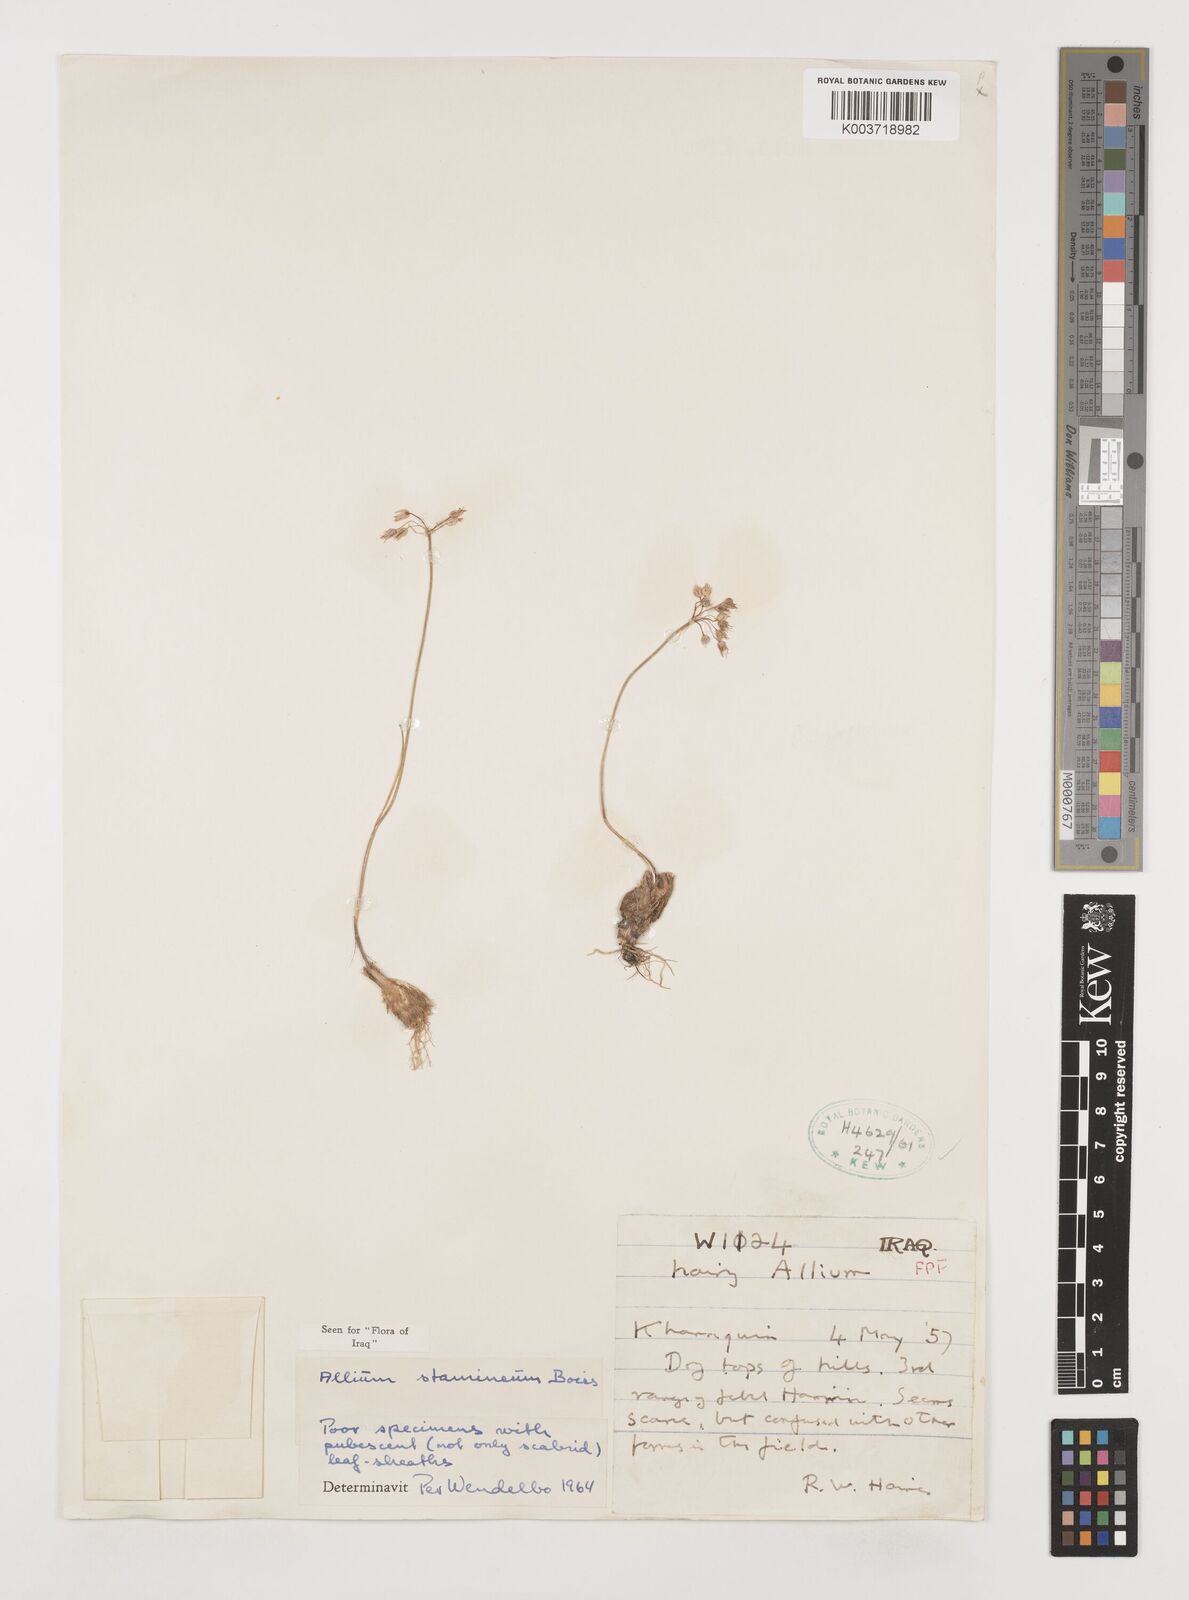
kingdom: Plantae
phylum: Tracheophyta
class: Liliopsida
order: Asparagales
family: Amaryllidaceae
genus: Allium
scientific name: Allium stamineum
